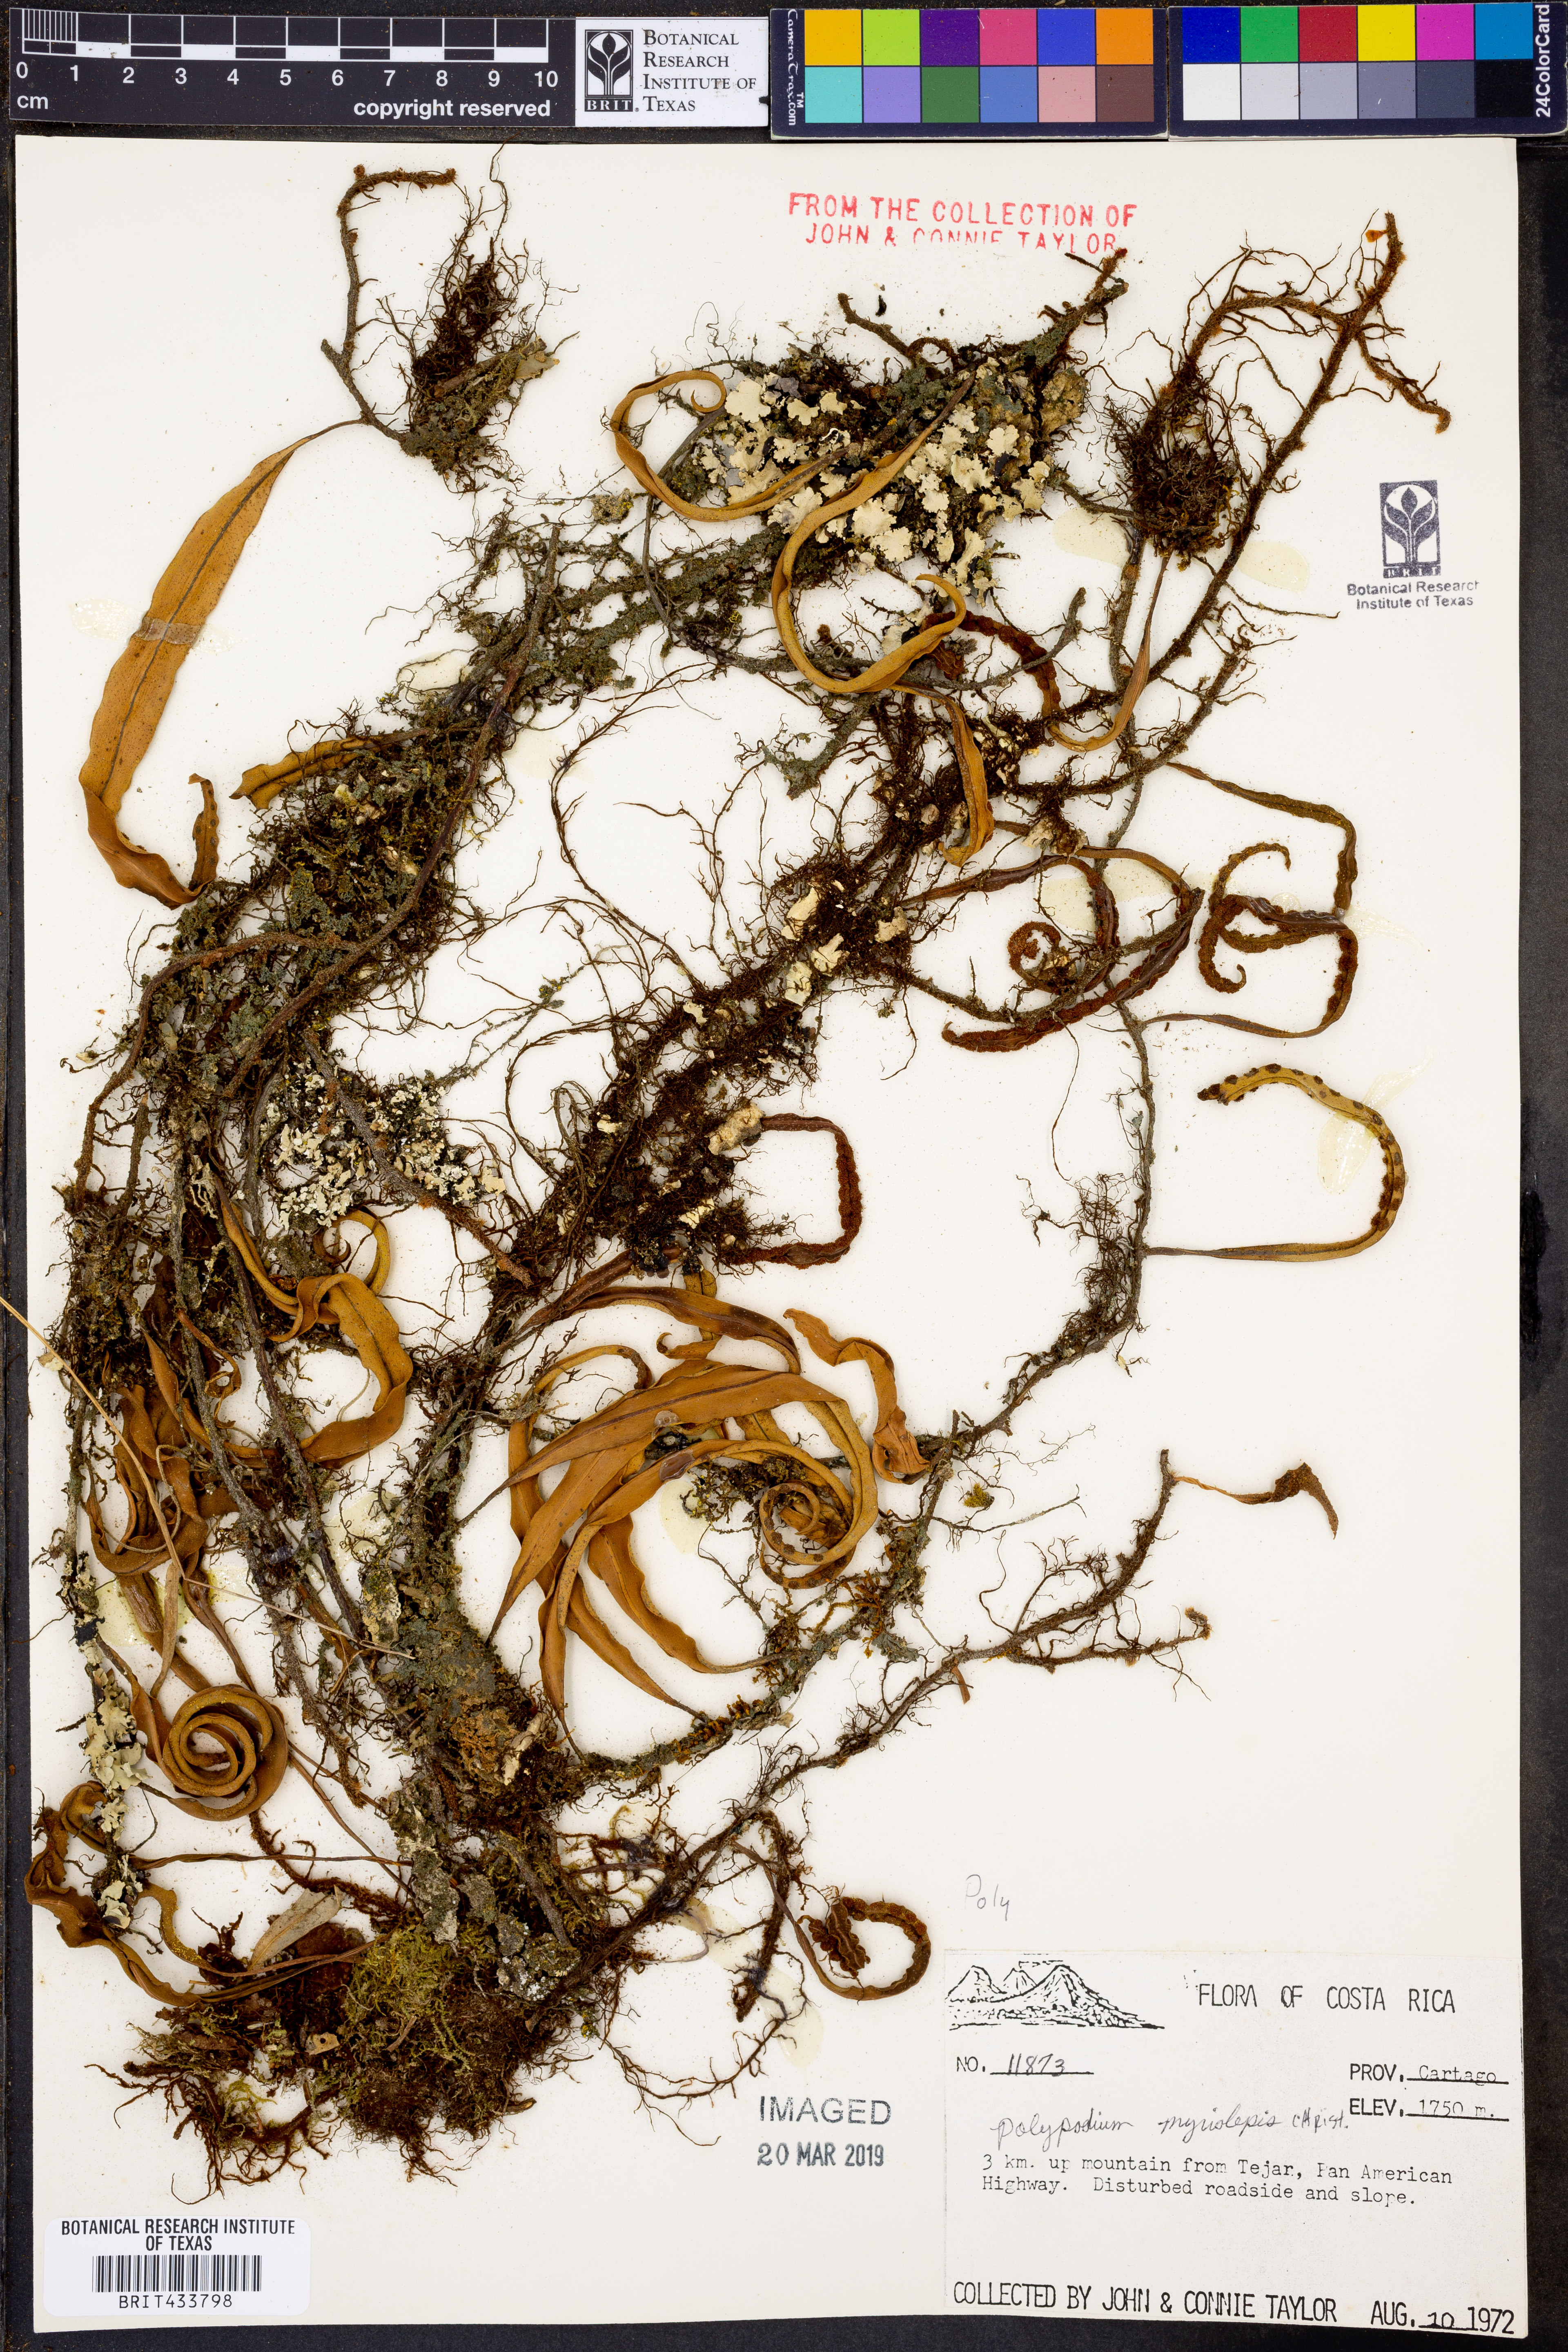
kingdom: Plantae
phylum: Tracheophyta
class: Polypodiopsida
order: Polypodiales
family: Polypodiaceae
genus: Pleopeltis
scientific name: Pleopeltis myriolepis
